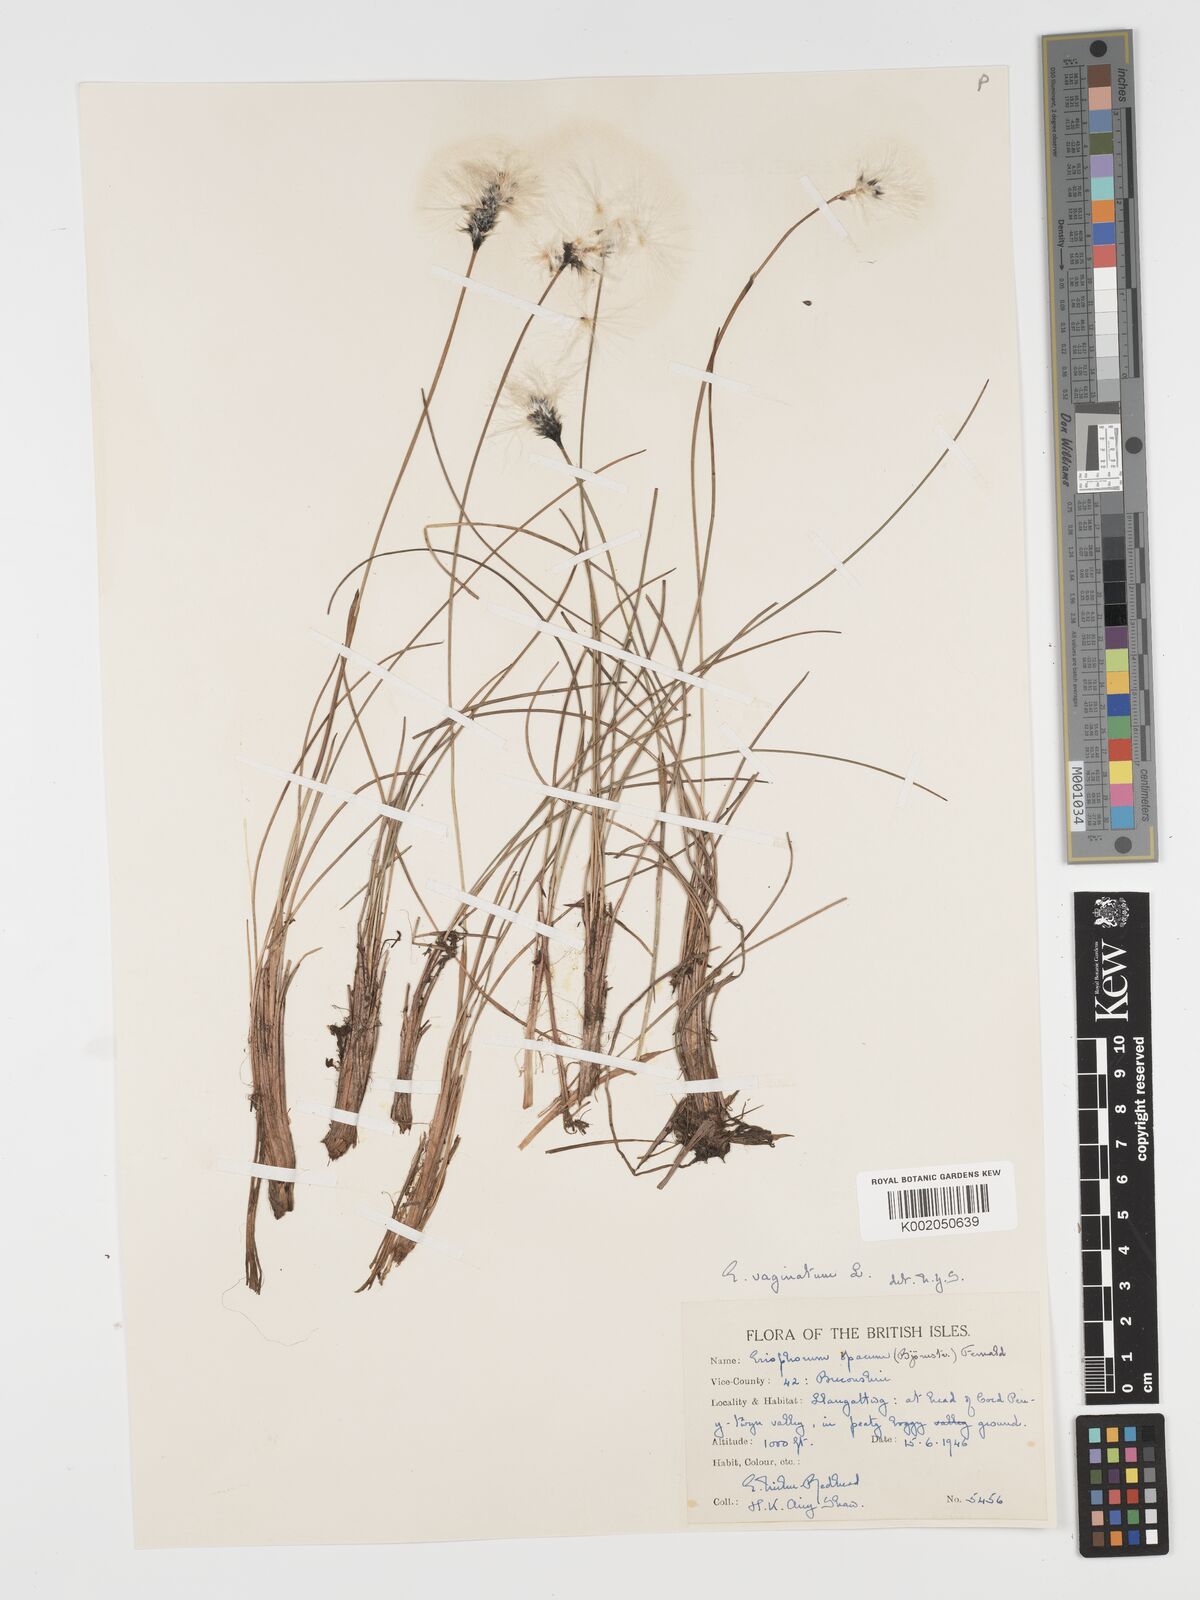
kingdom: Plantae
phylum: Tracheophyta
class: Liliopsida
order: Poales
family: Cyperaceae
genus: Eriophorum
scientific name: Eriophorum vaginatum
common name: Hare's-tail cottongrass
